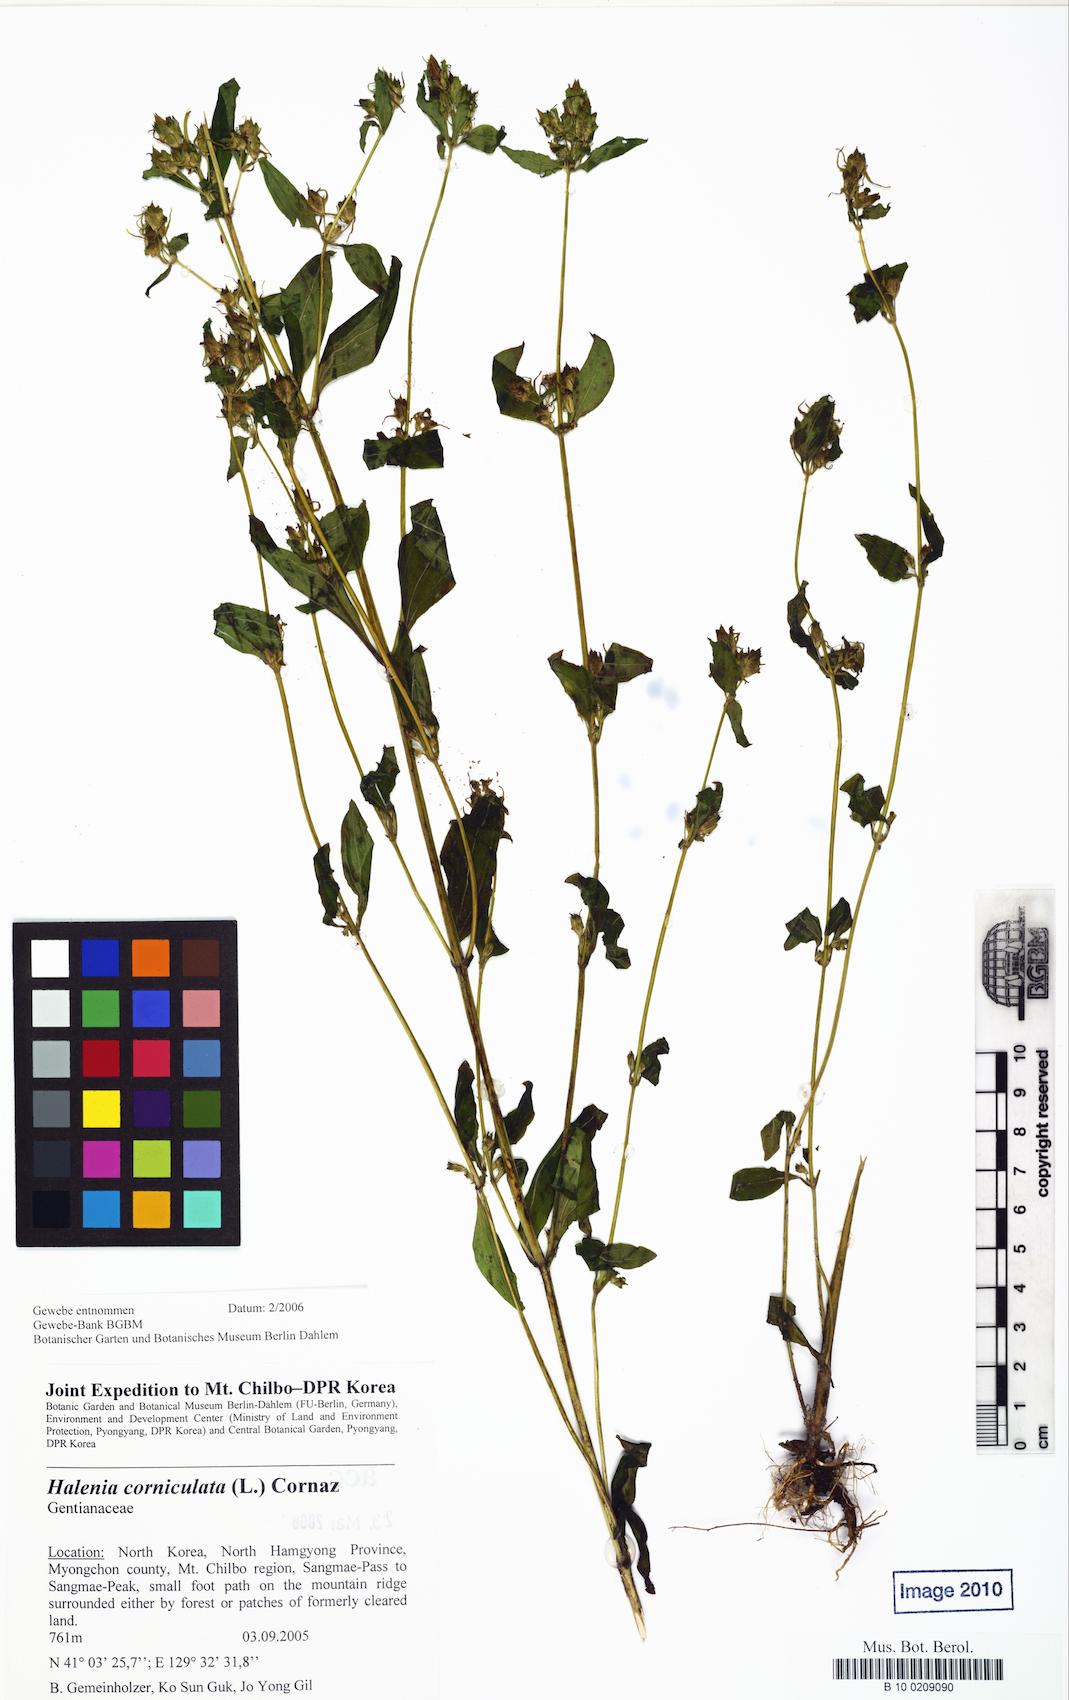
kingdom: Plantae
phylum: Tracheophyta
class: Magnoliopsida
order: Gentianales
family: Gentianaceae
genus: Halenia
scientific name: Halenia corniculata
